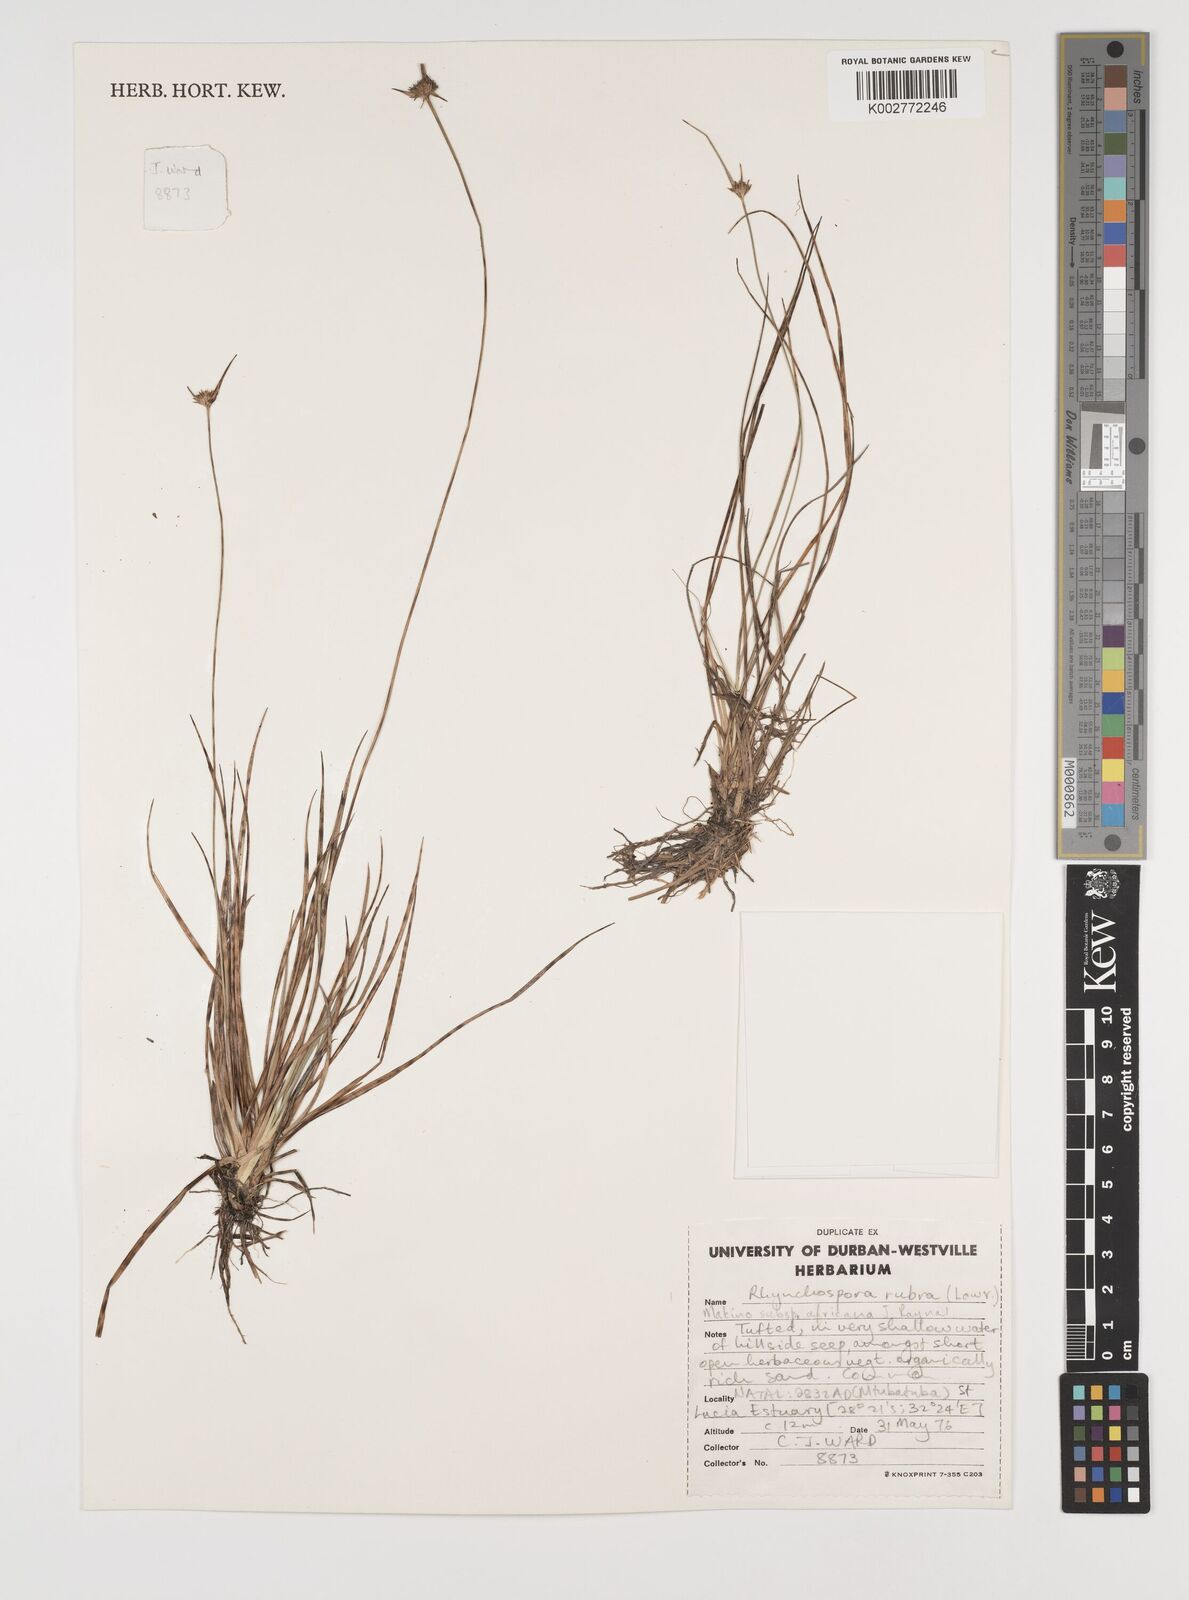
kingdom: Plantae
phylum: Tracheophyta
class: Liliopsida
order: Poales
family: Cyperaceae
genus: Rhynchospora
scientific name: Rhynchospora rubra
